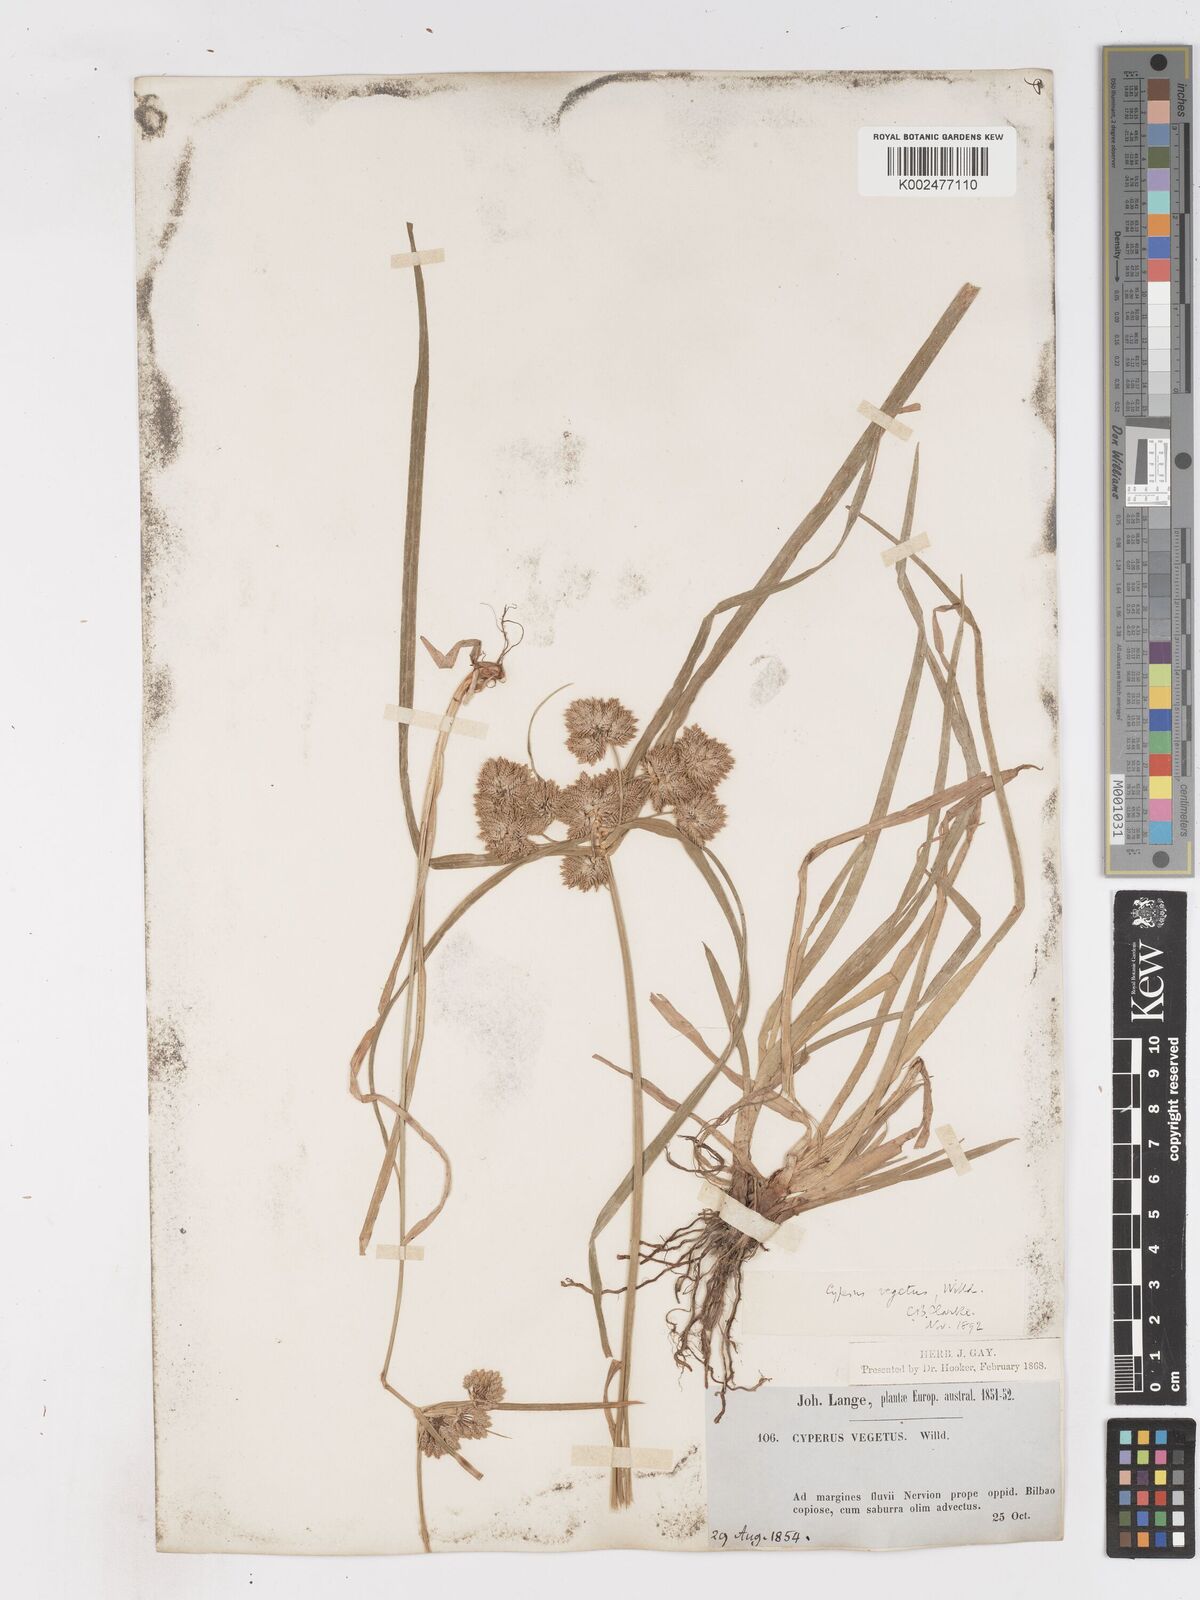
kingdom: Plantae
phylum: Tracheophyta
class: Liliopsida
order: Poales
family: Cyperaceae
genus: Cyperus
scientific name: Cyperus eragrostis
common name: Tall flatsedge
